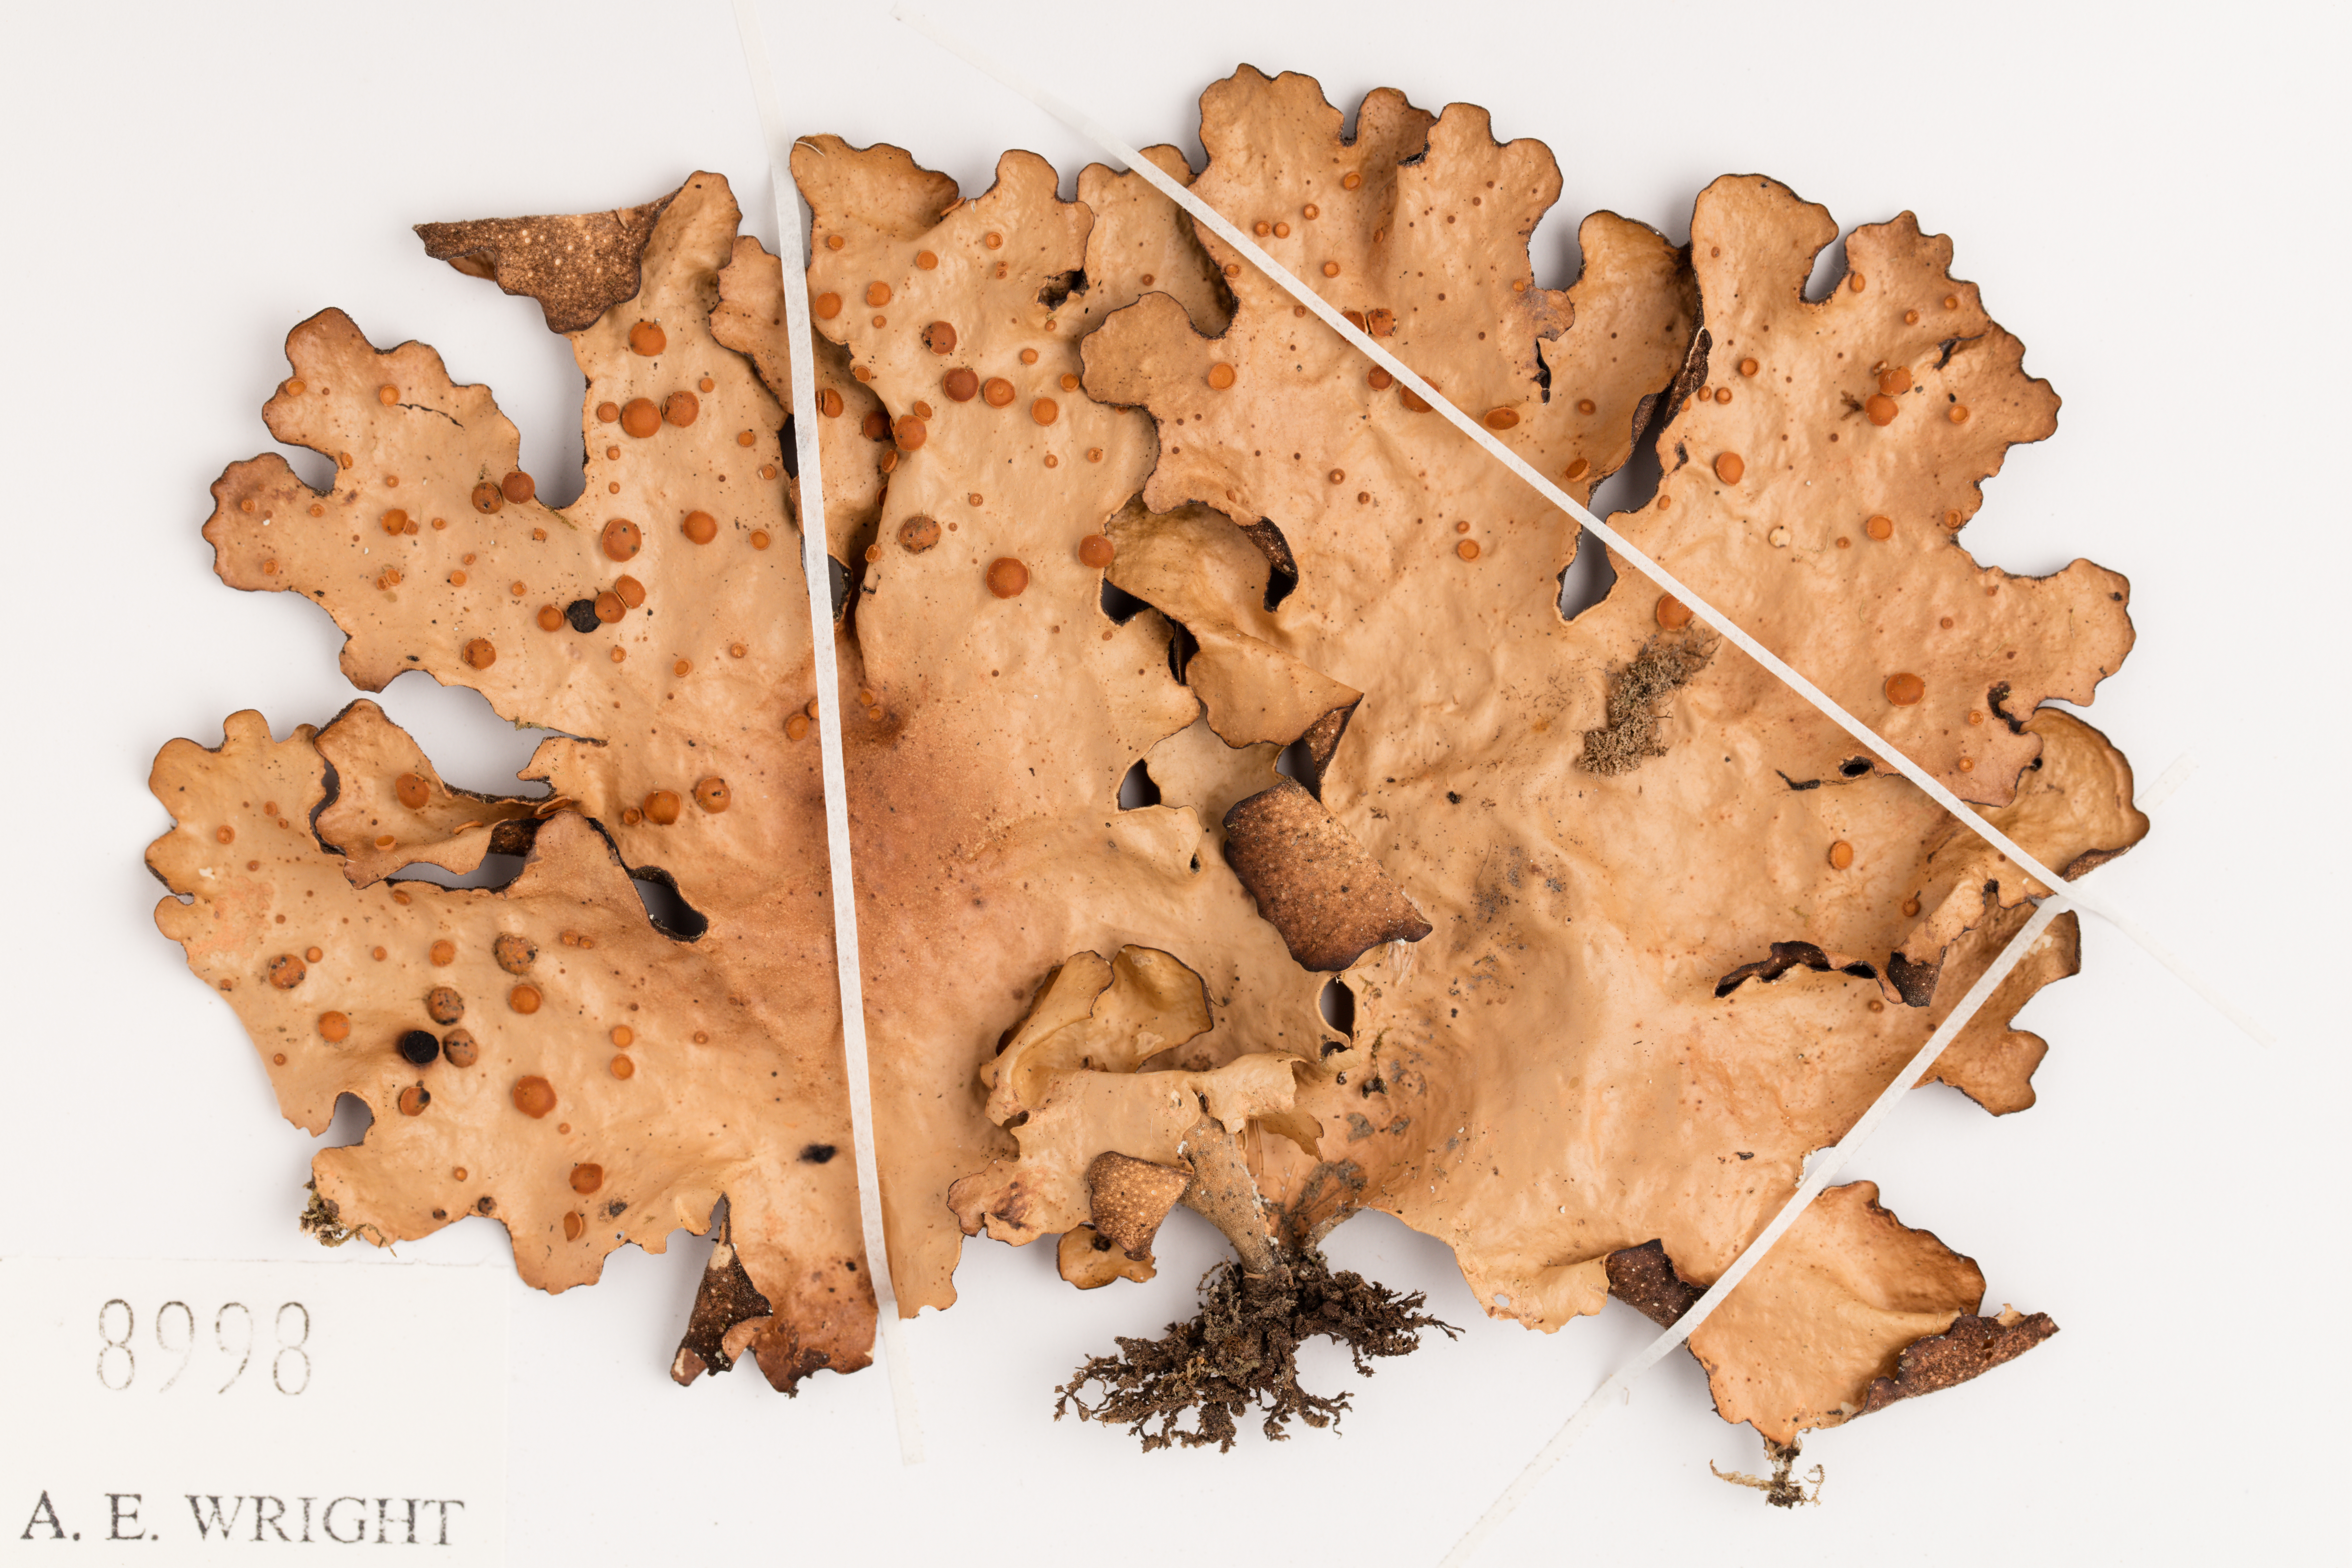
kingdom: Fungi
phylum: Ascomycota
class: Lecanoromycetes
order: Peltigerales
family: Lobariaceae
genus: Sticta
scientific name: Sticta latifrons
